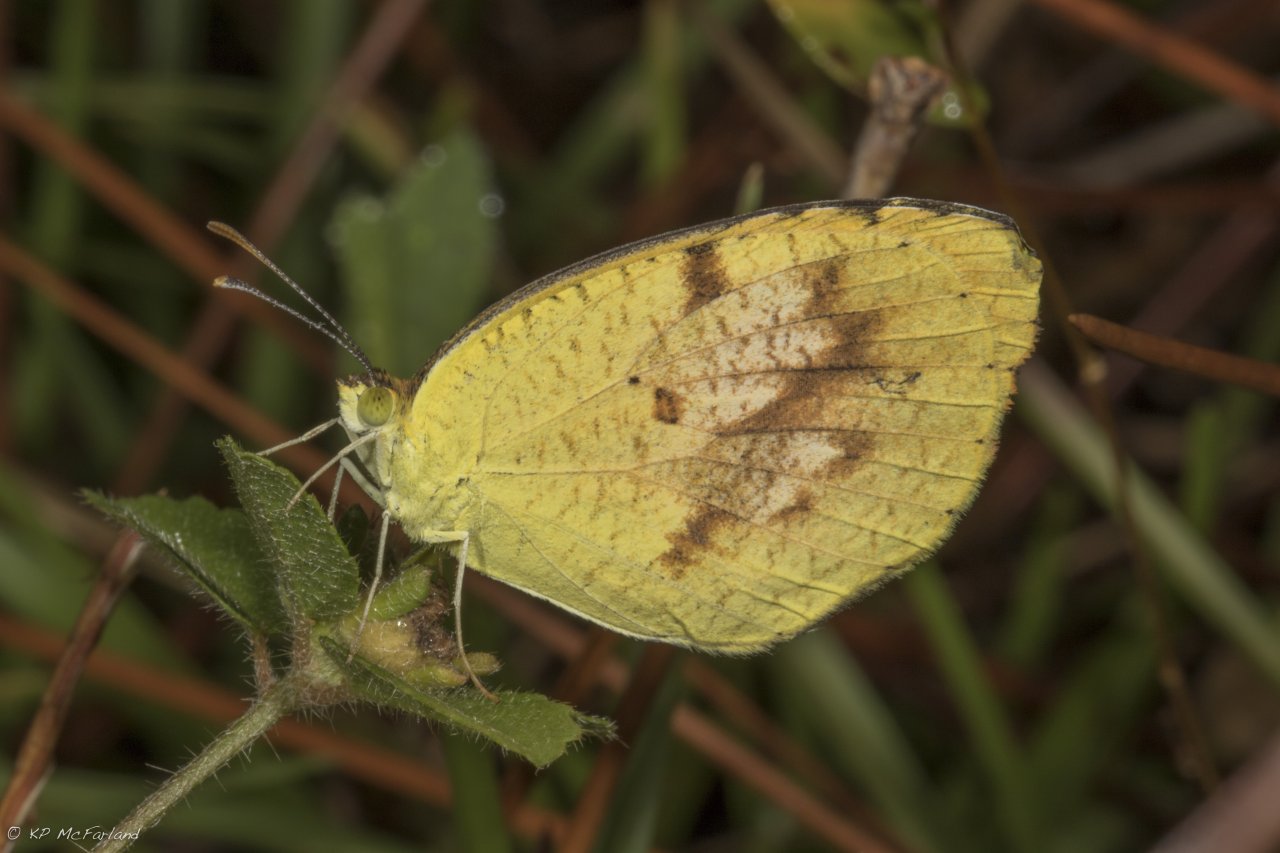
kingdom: Animalia
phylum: Arthropoda
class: Insecta
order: Lepidoptera
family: Pieridae
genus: Abaeis
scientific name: Abaeis nicippe
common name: Sleepy Orange
